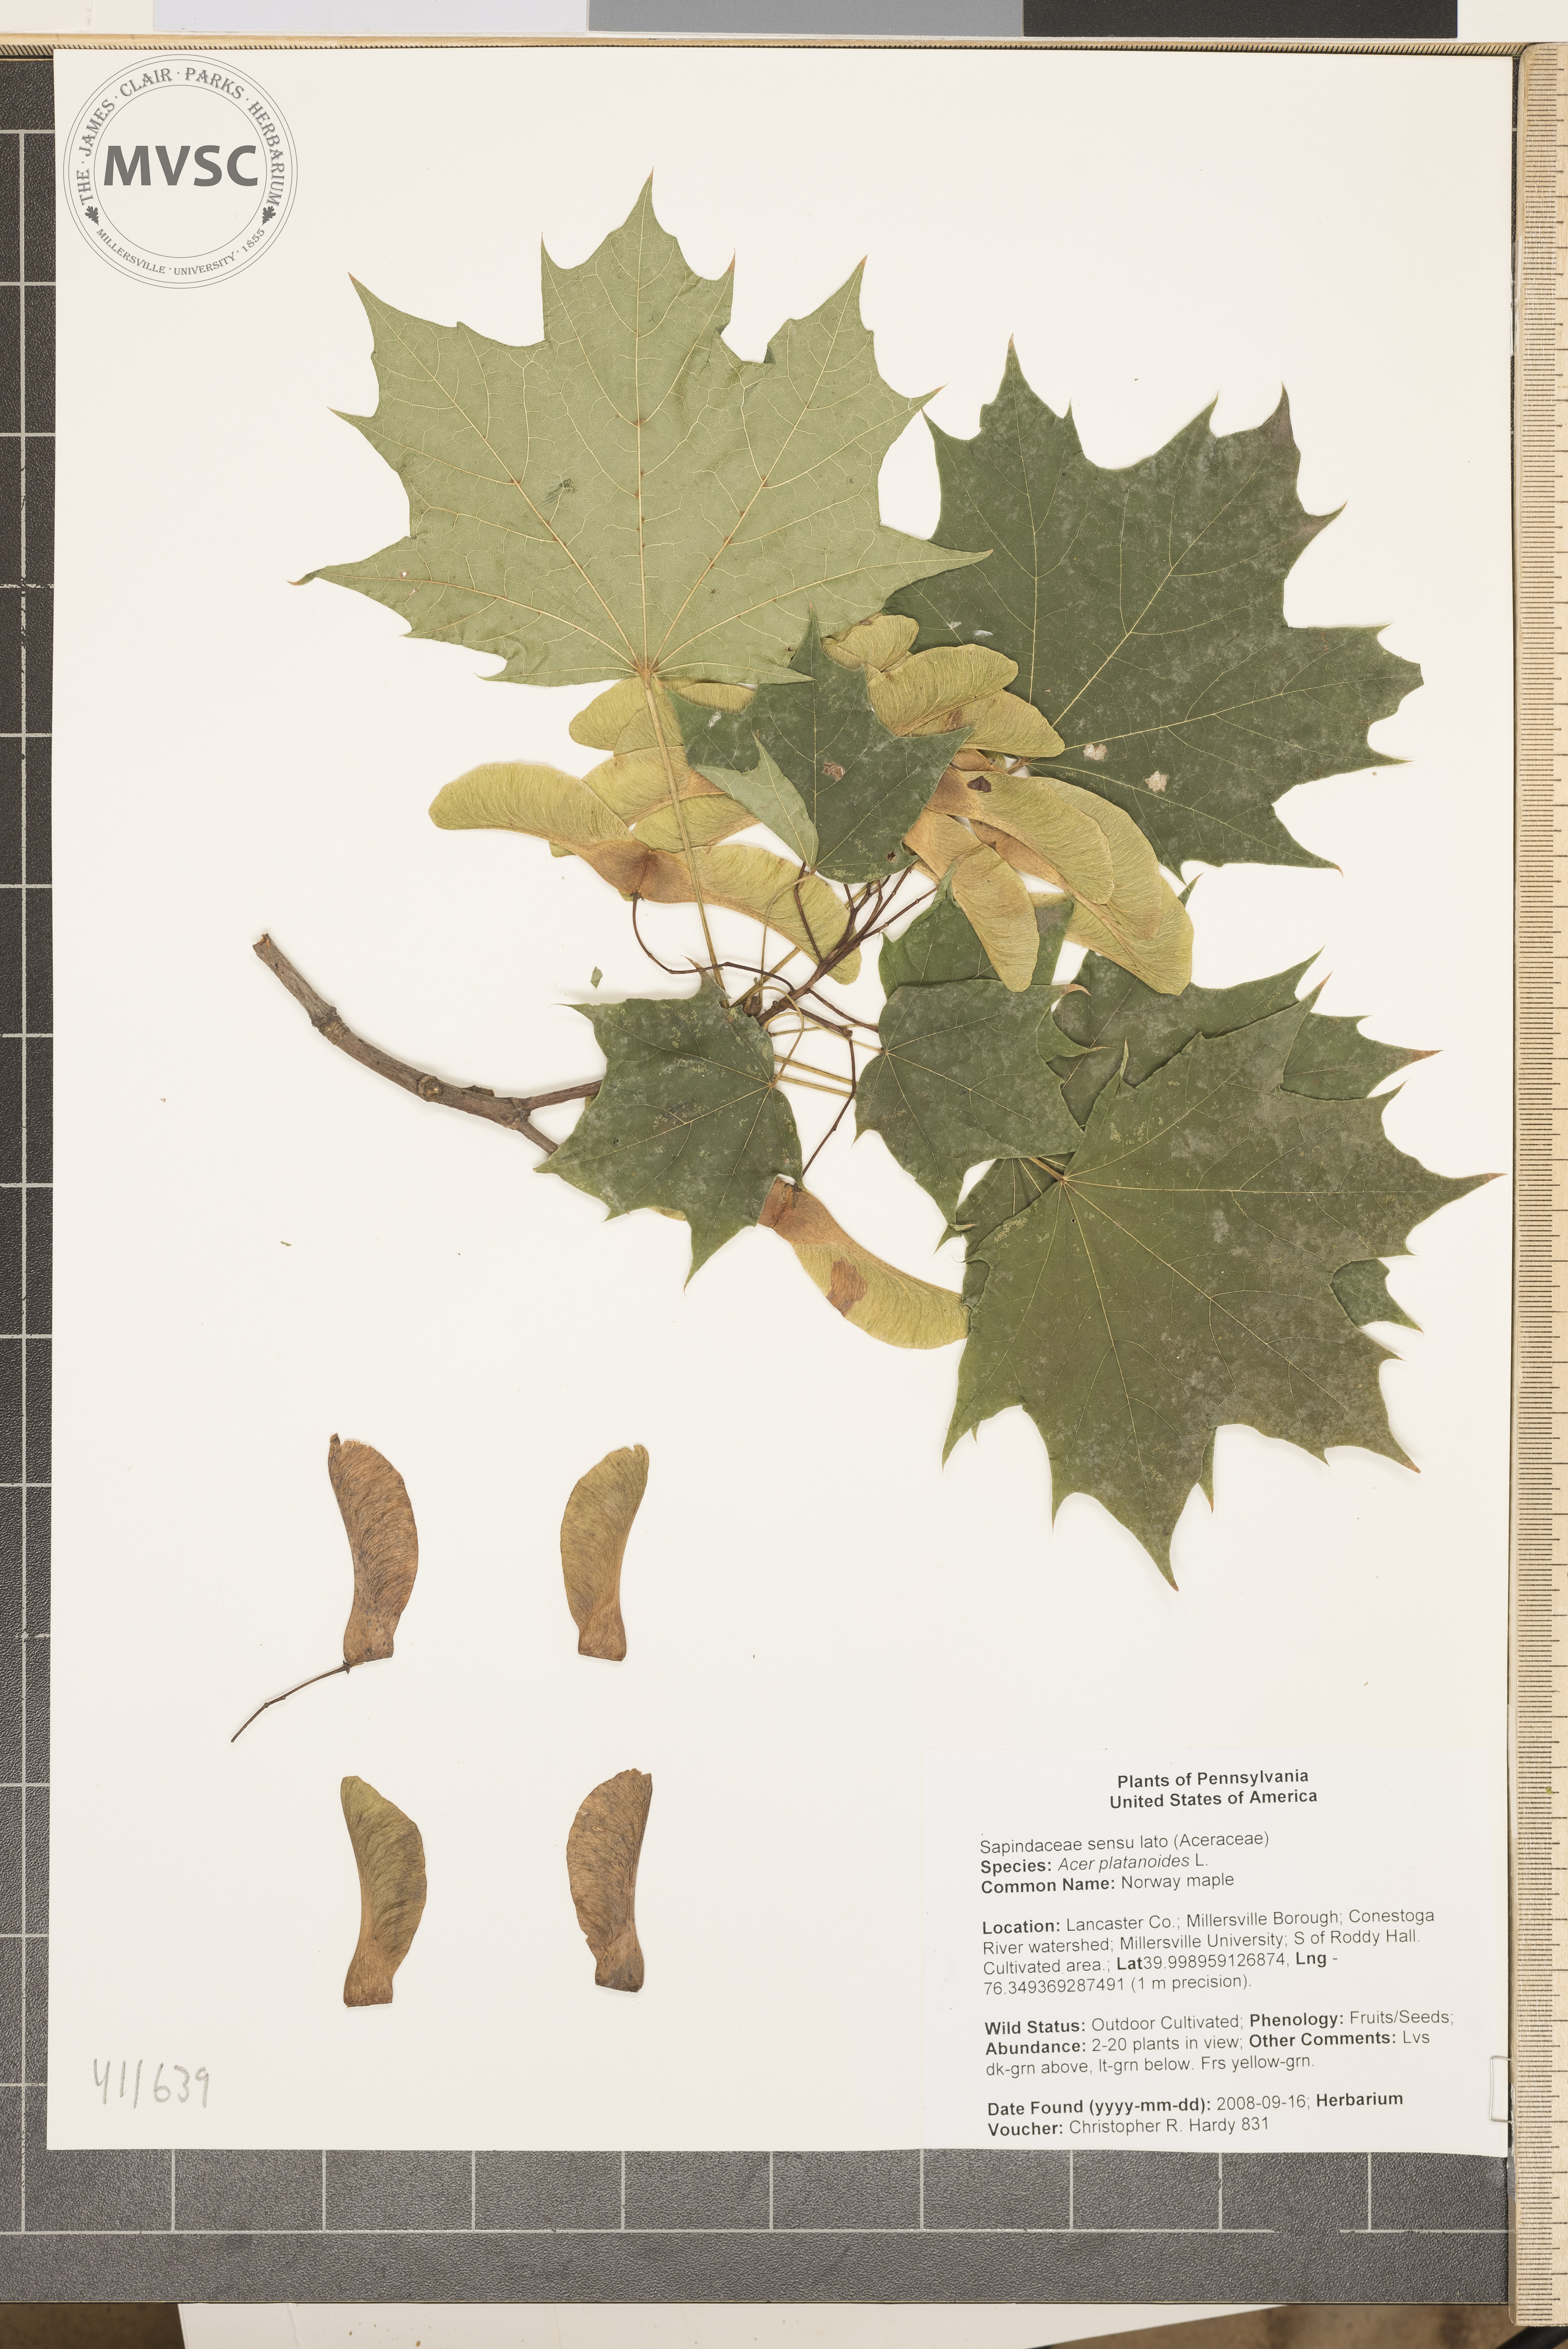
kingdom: Plantae
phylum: Tracheophyta
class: Magnoliopsida
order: Sapindales
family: Sapindaceae
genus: Acer
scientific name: Acer platanoides
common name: Norway maple
